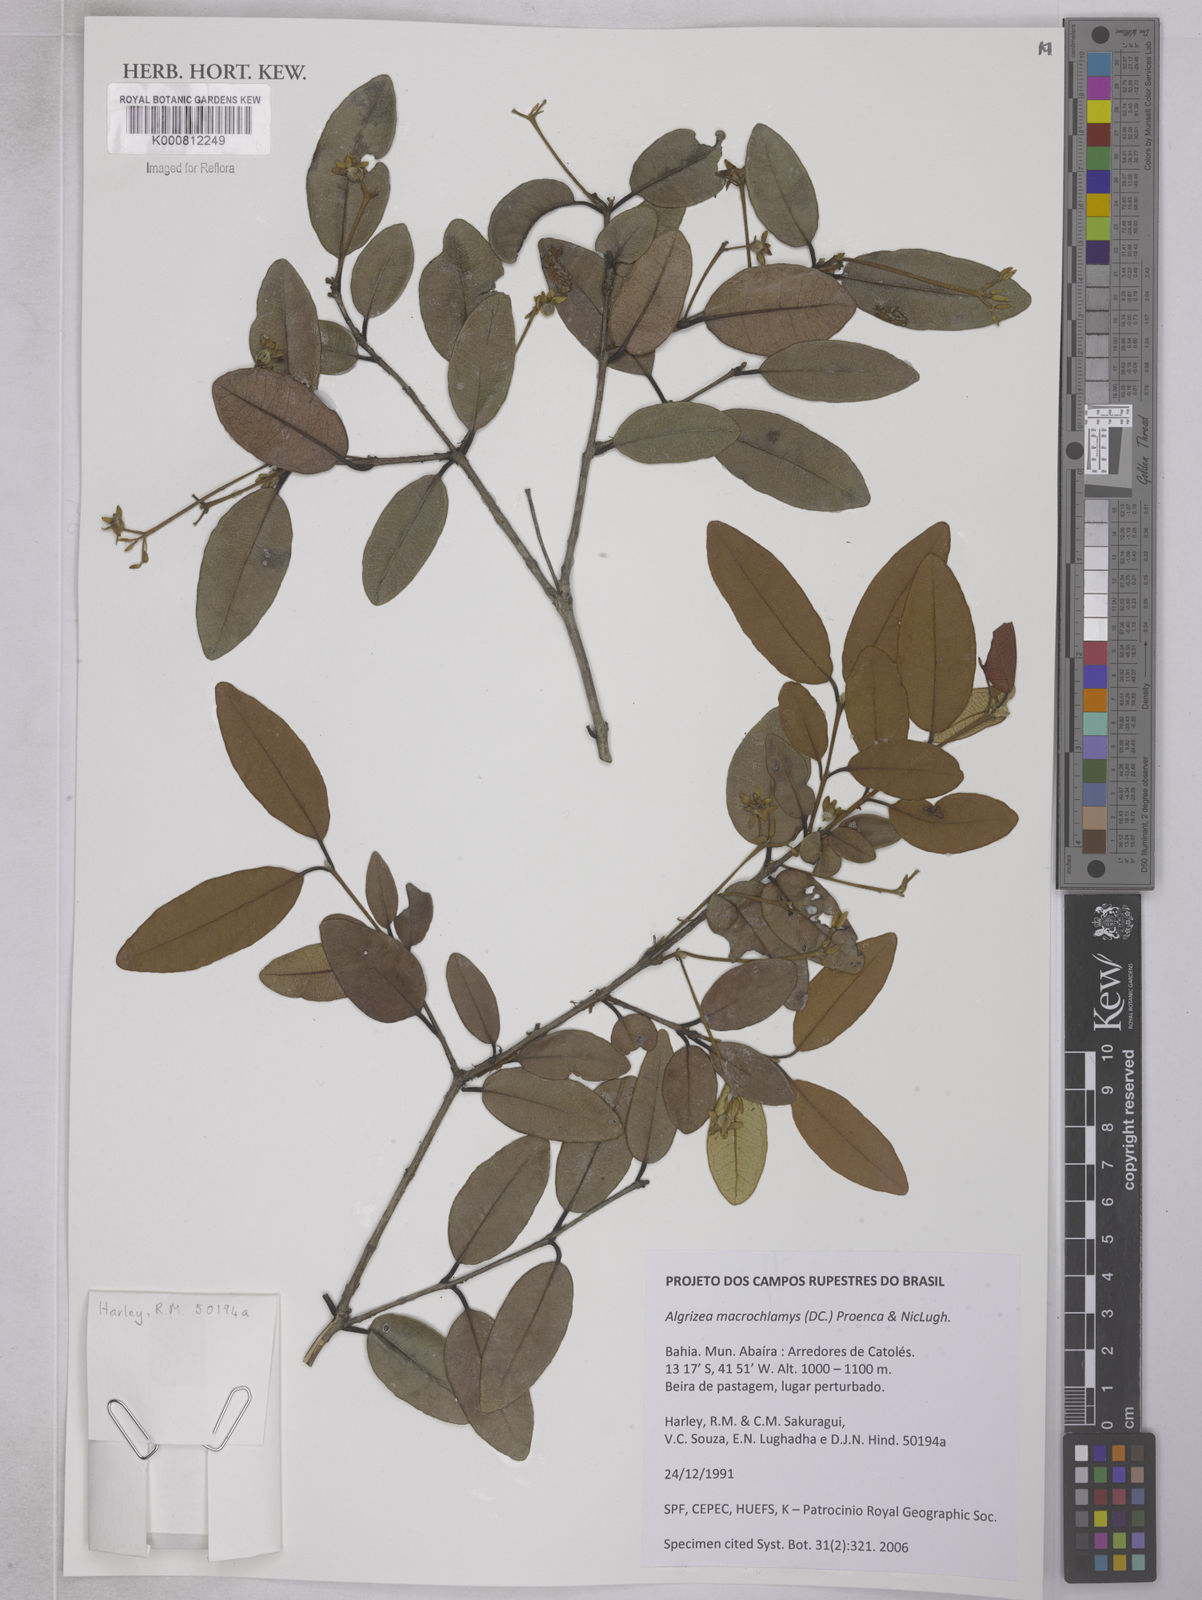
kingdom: Plantae
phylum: Tracheophyta
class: Magnoliopsida
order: Myrtales
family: Myrtaceae
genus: Algrizea
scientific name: Algrizea macrochlamys
